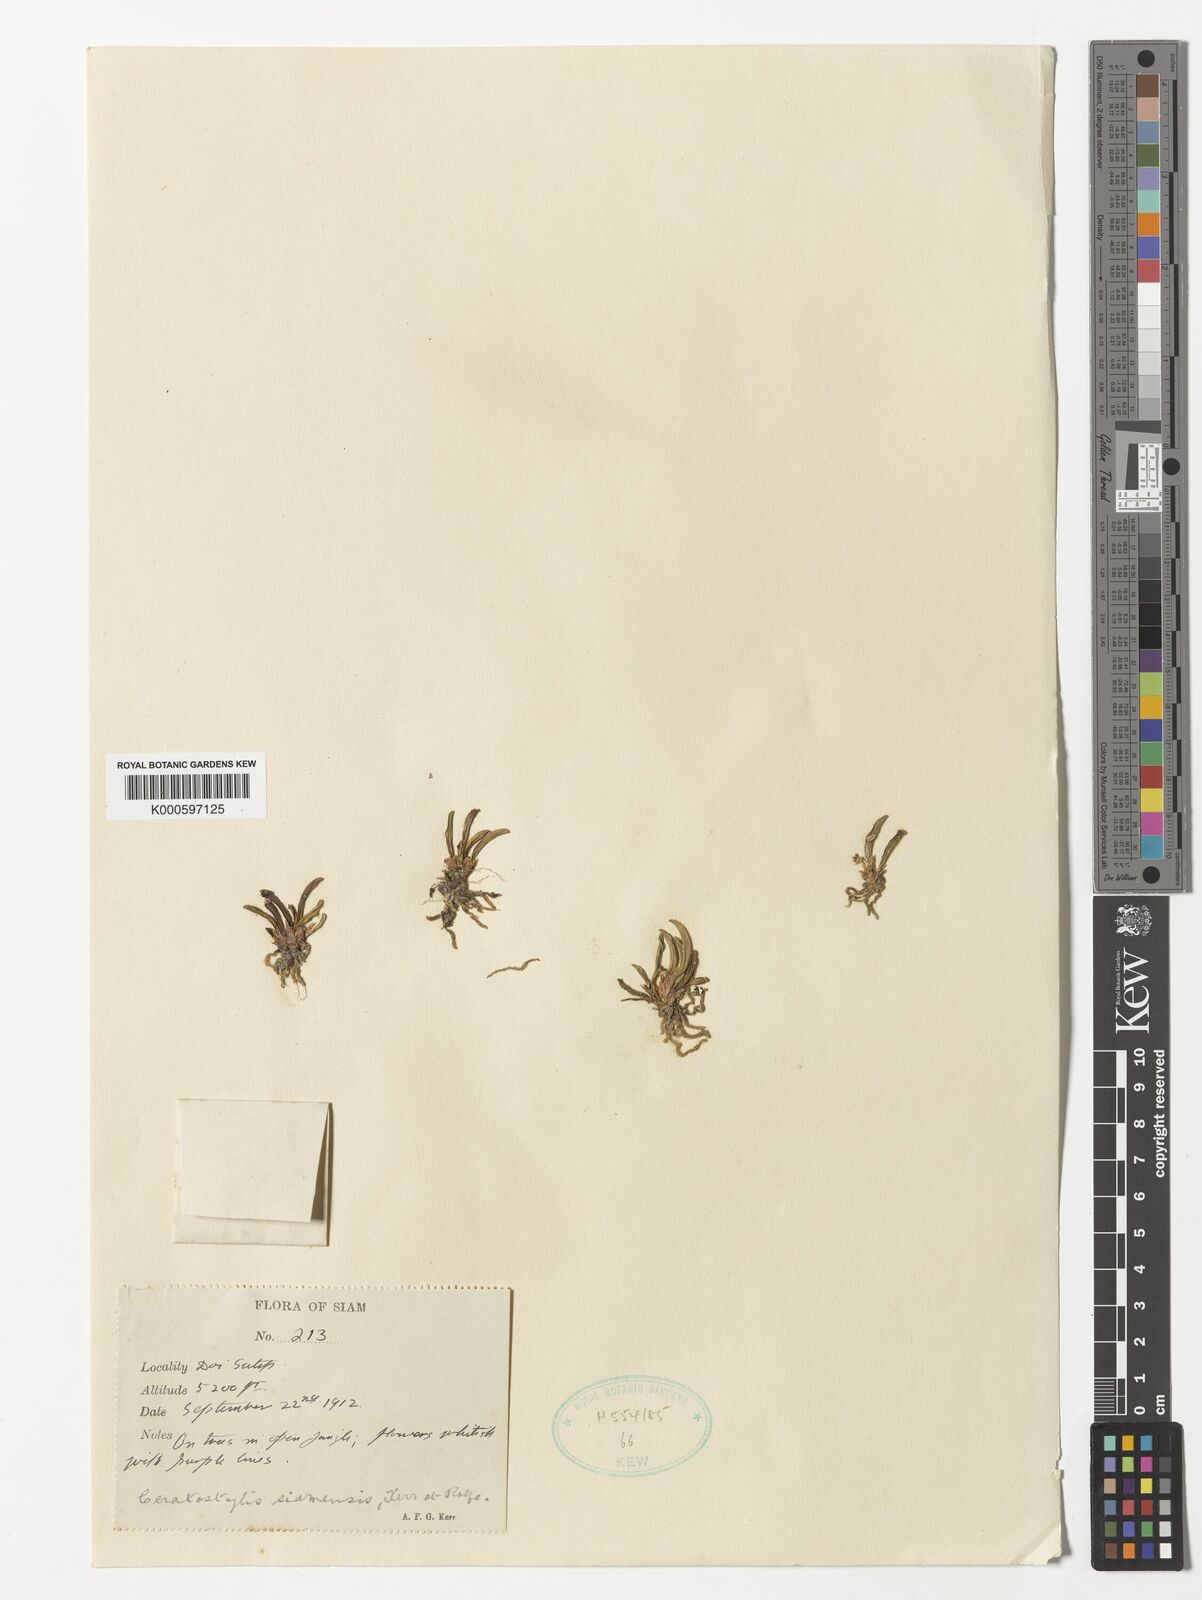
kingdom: Plantae
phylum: Tracheophyta
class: Liliopsida
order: Asparagales
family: Orchidaceae
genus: Ceratostylis
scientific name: Ceratostylis siamensis
